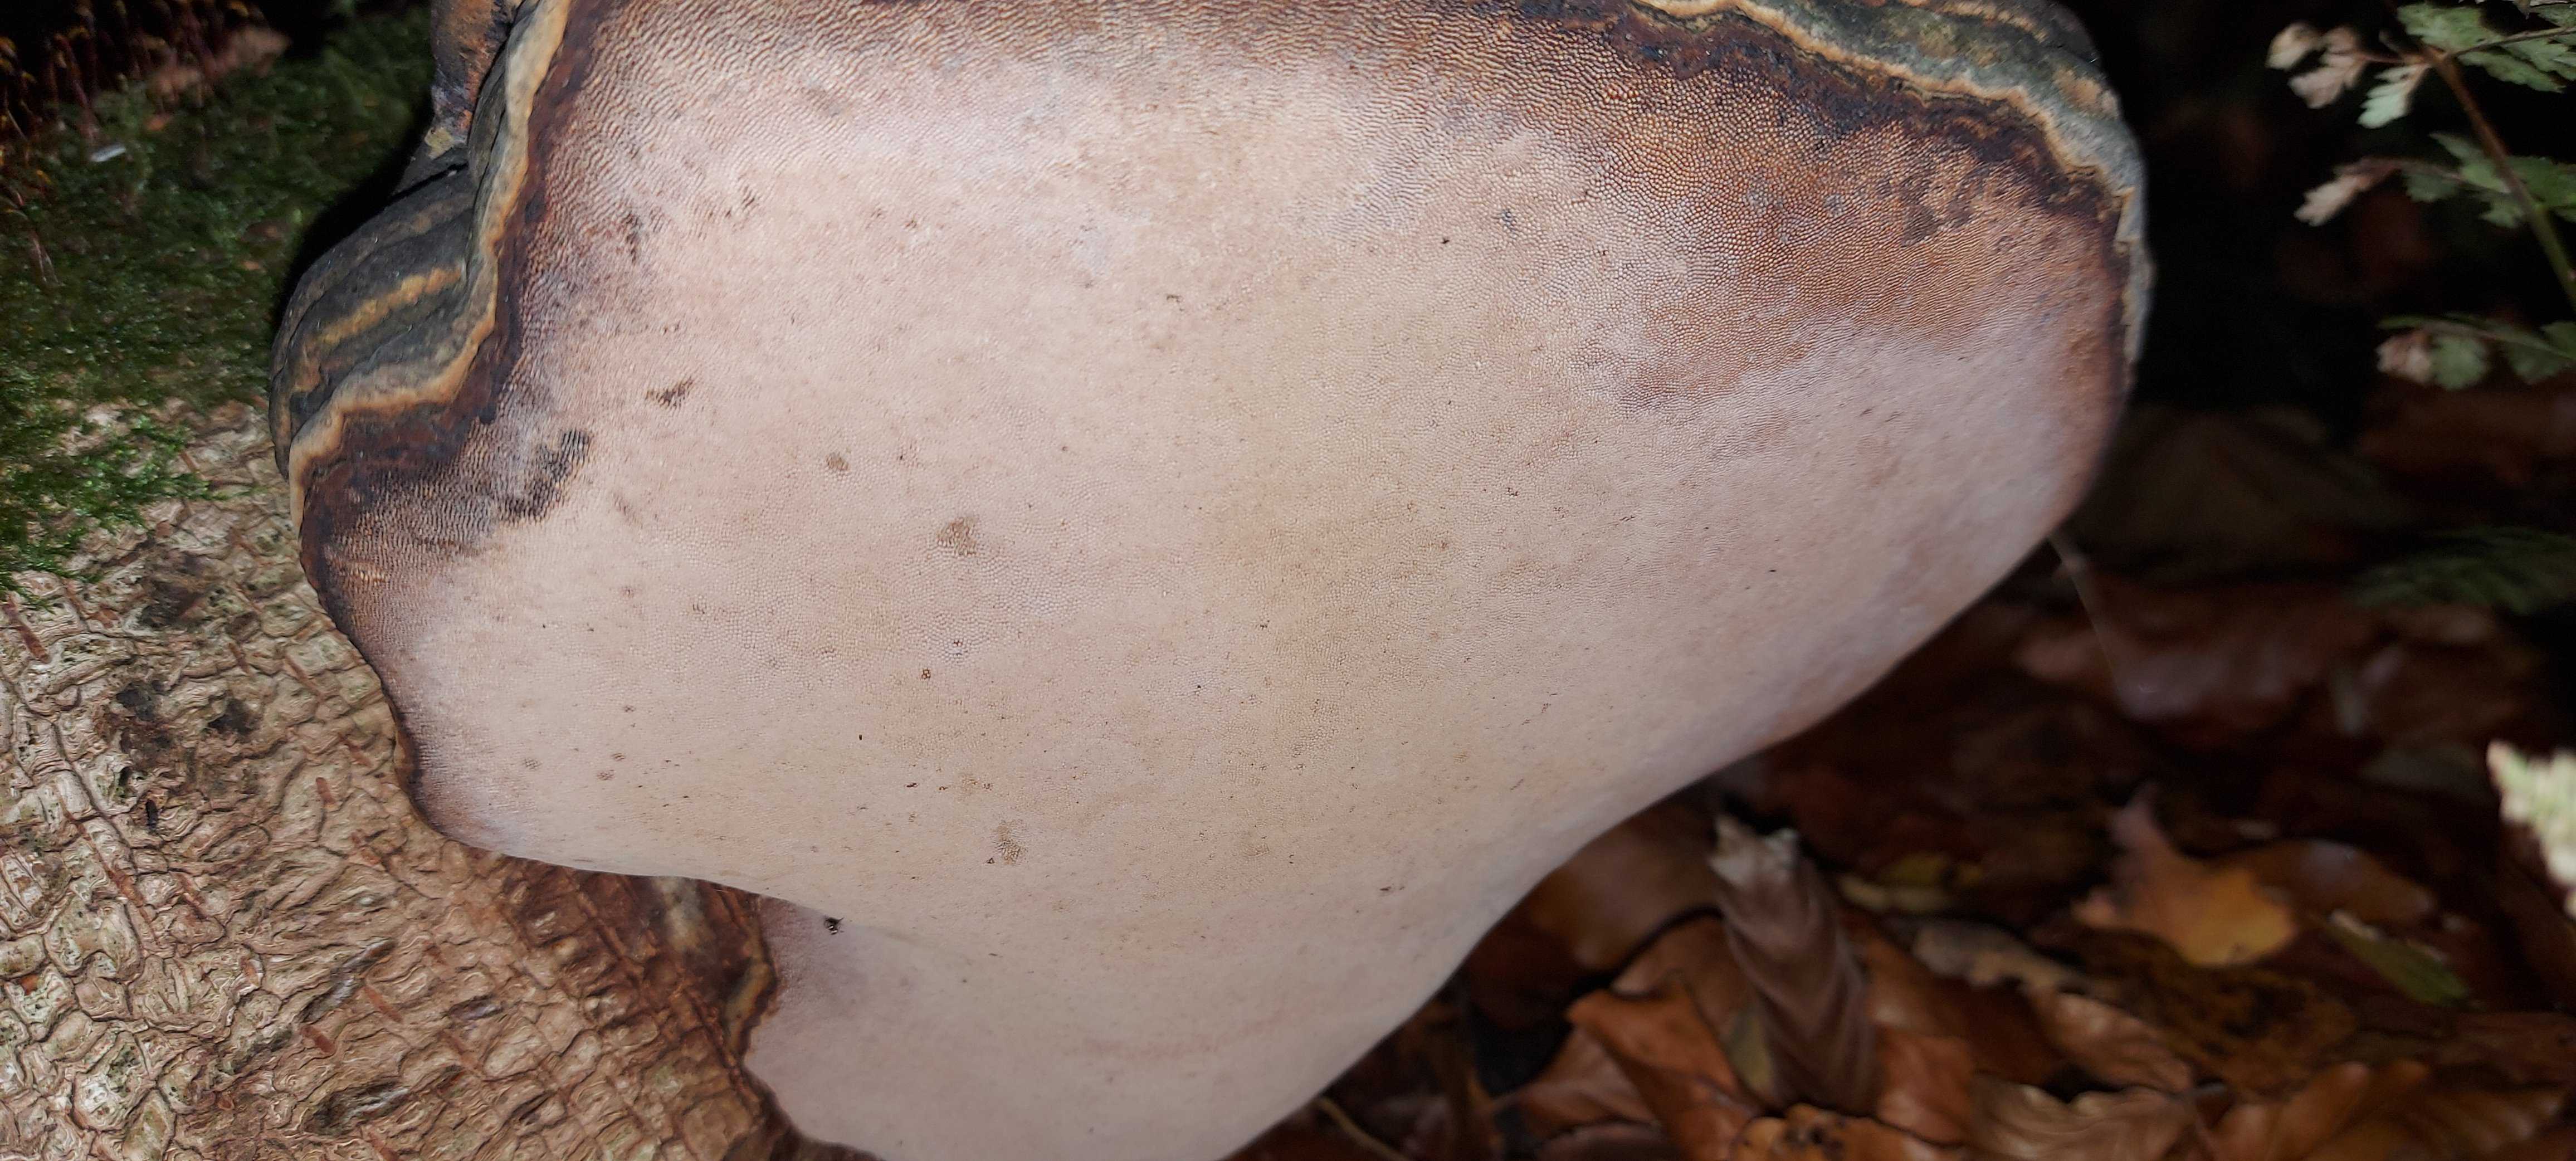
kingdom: Fungi
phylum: Basidiomycota
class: Agaricomycetes
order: Polyporales
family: Polyporaceae
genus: Fomes
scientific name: Fomes fomentarius
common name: tøndersvamp
